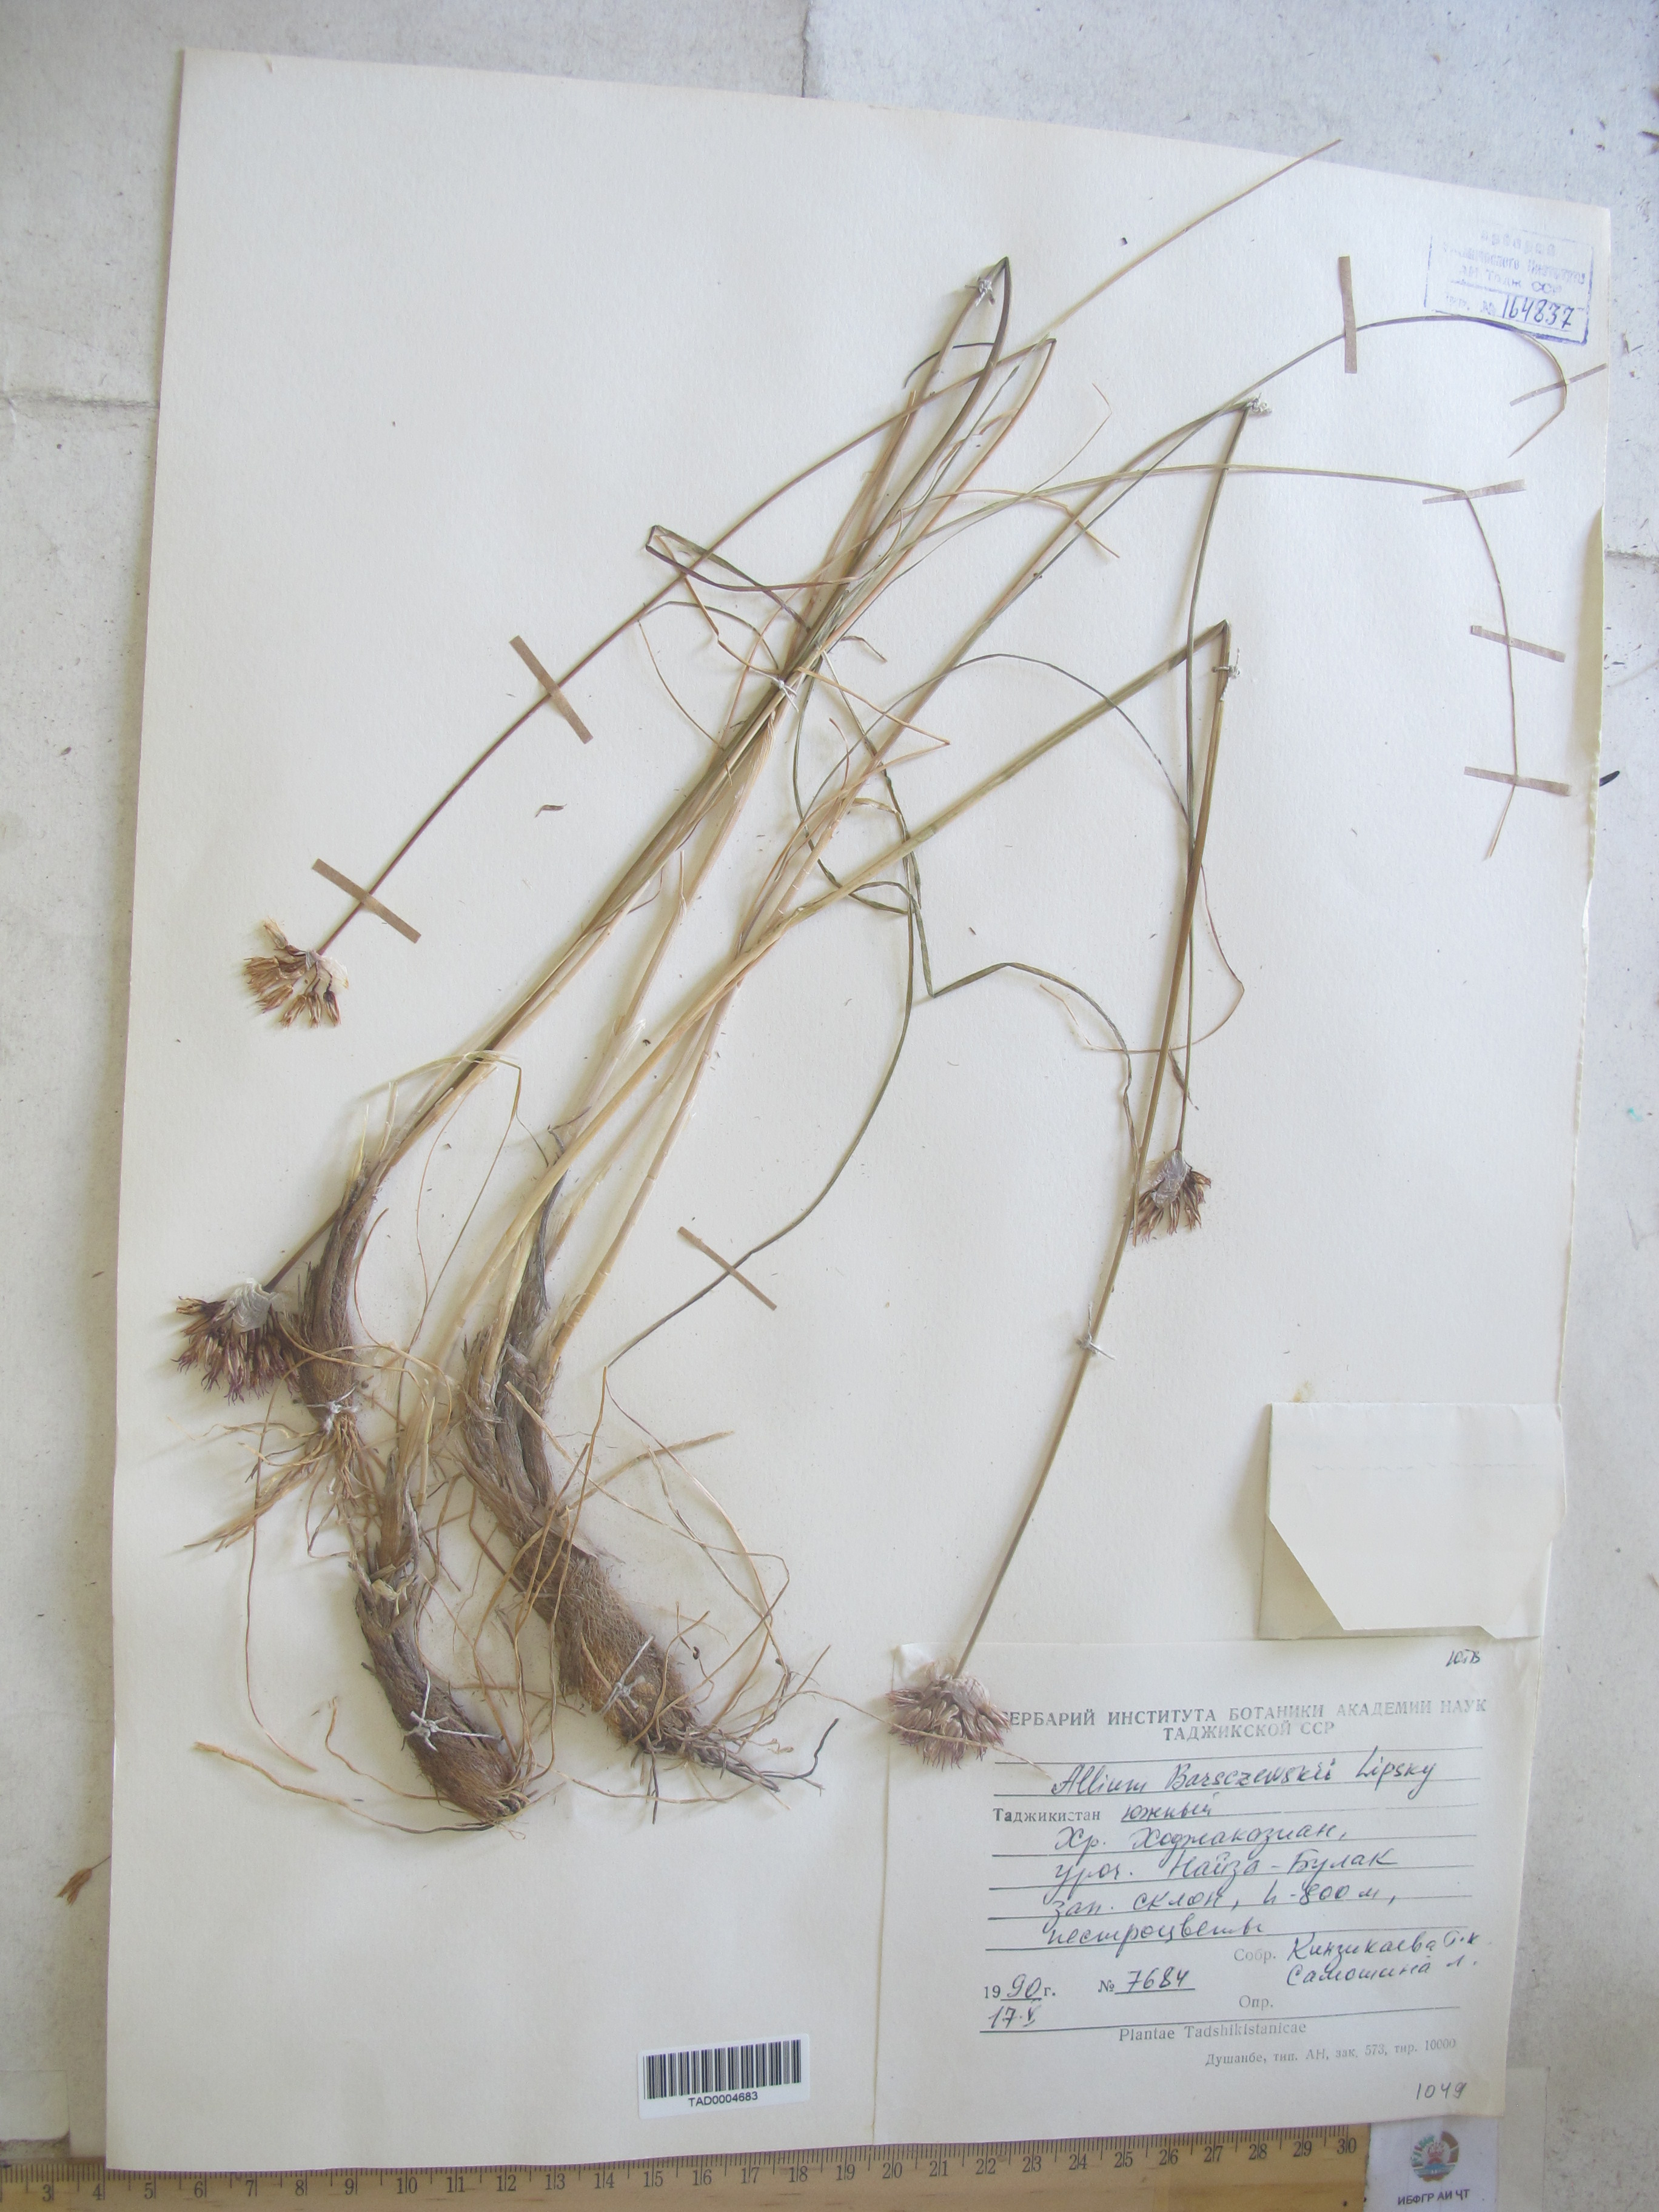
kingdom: Plantae
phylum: Tracheophyta
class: Liliopsida
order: Asparagales
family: Amaryllidaceae
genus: Allium
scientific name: Allium barsczewskii
